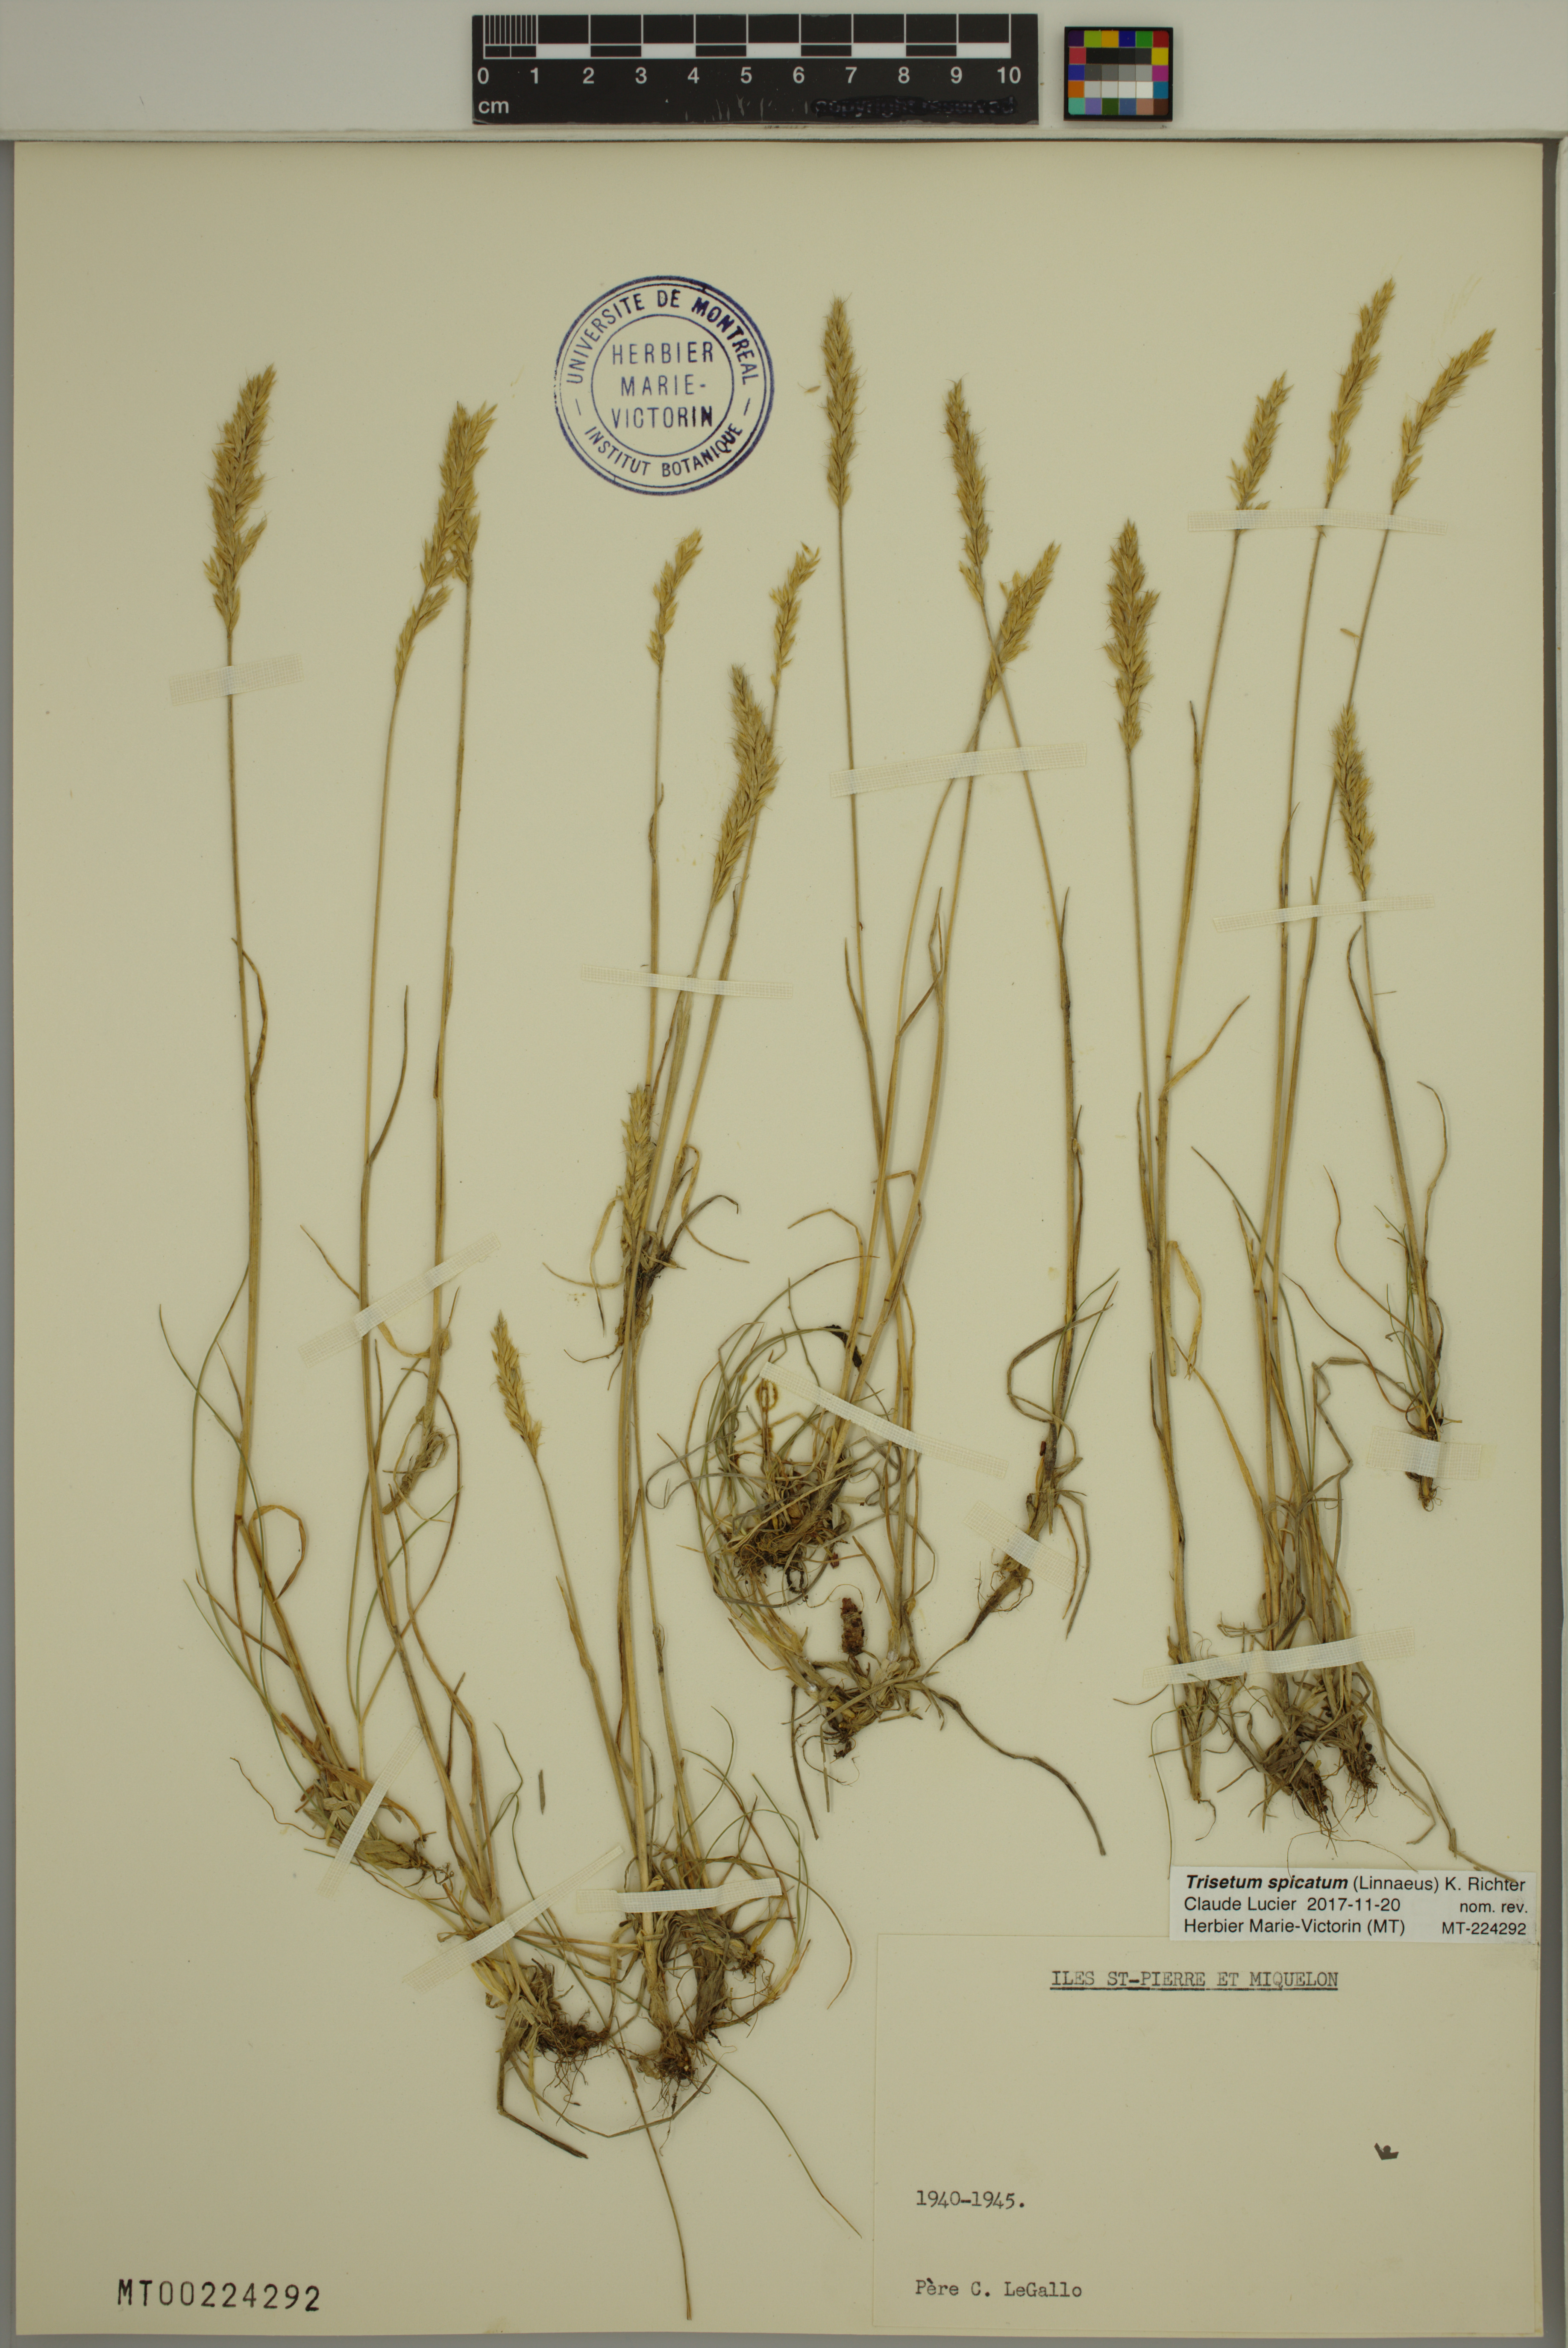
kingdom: Plantae
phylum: Tracheophyta
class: Liliopsida
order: Poales
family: Poaceae
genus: Koeleria
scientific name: Koeleria spicata
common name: Mountain trisetum
